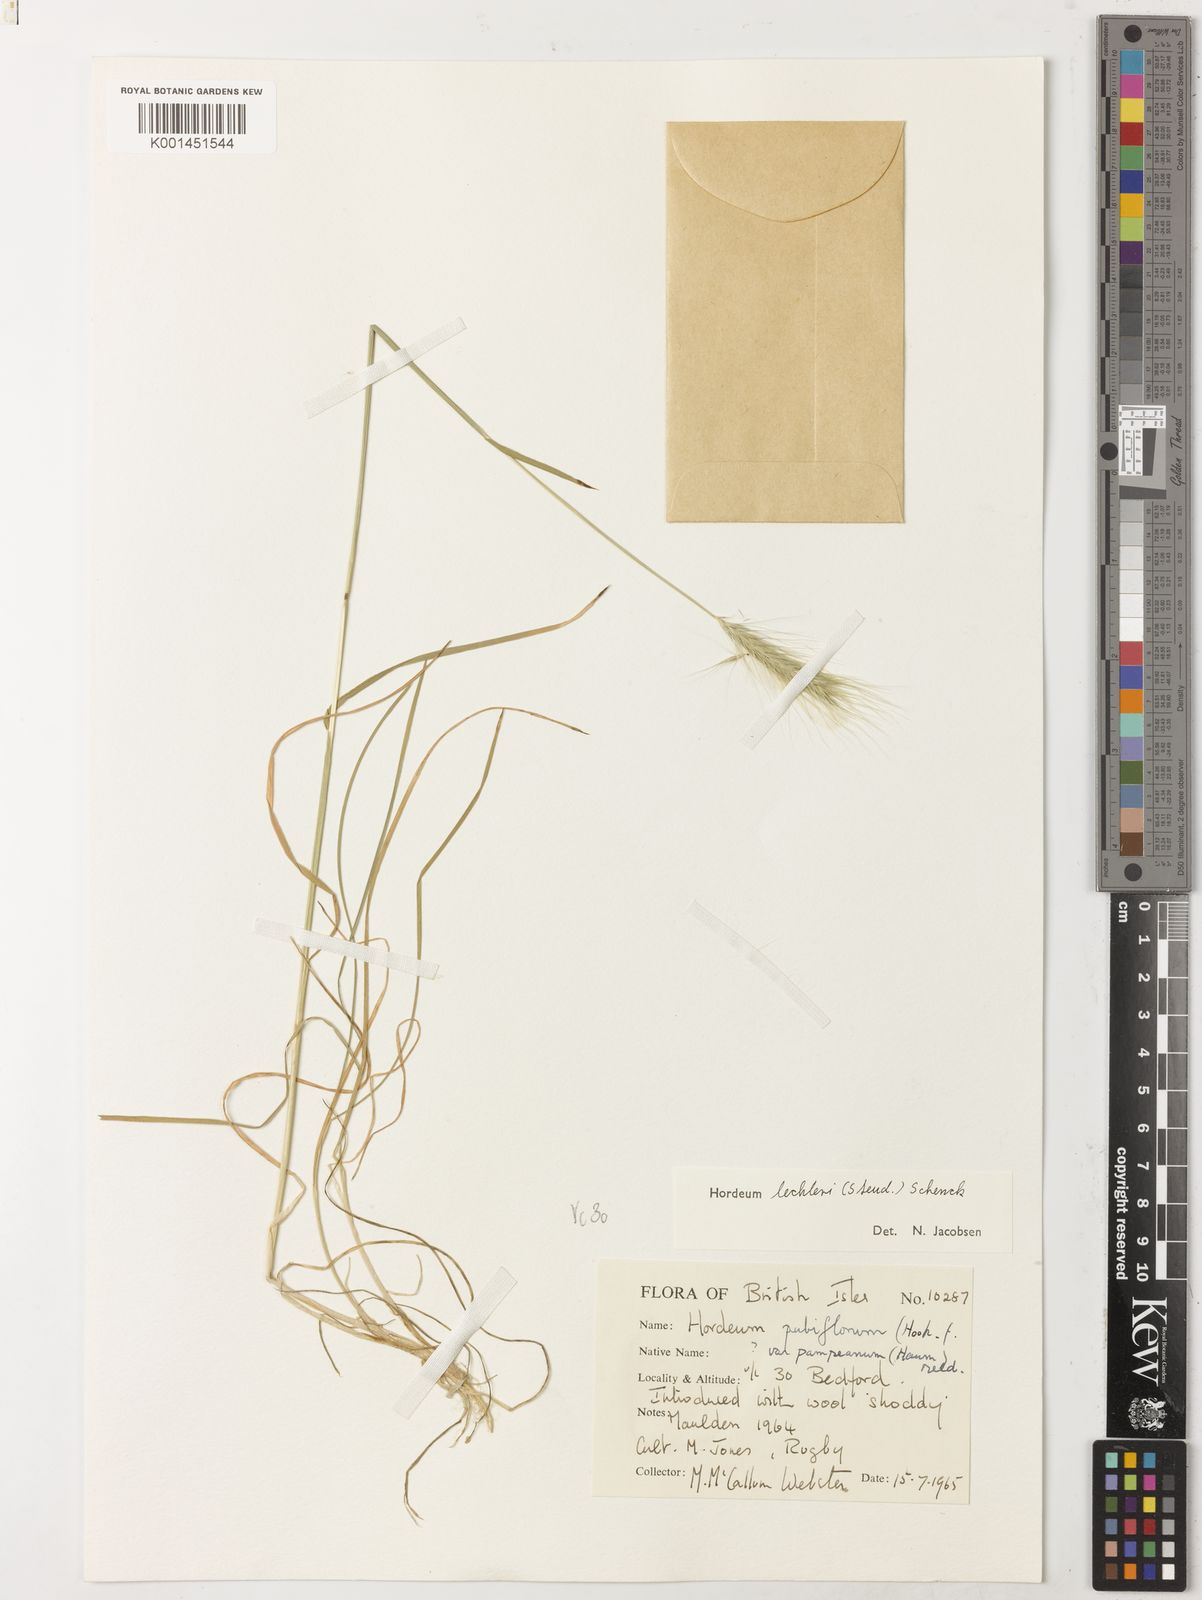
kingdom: Plantae
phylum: Tracheophyta
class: Liliopsida
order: Poales
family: Poaceae
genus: Hordeum
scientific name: Hordeum lechleri
